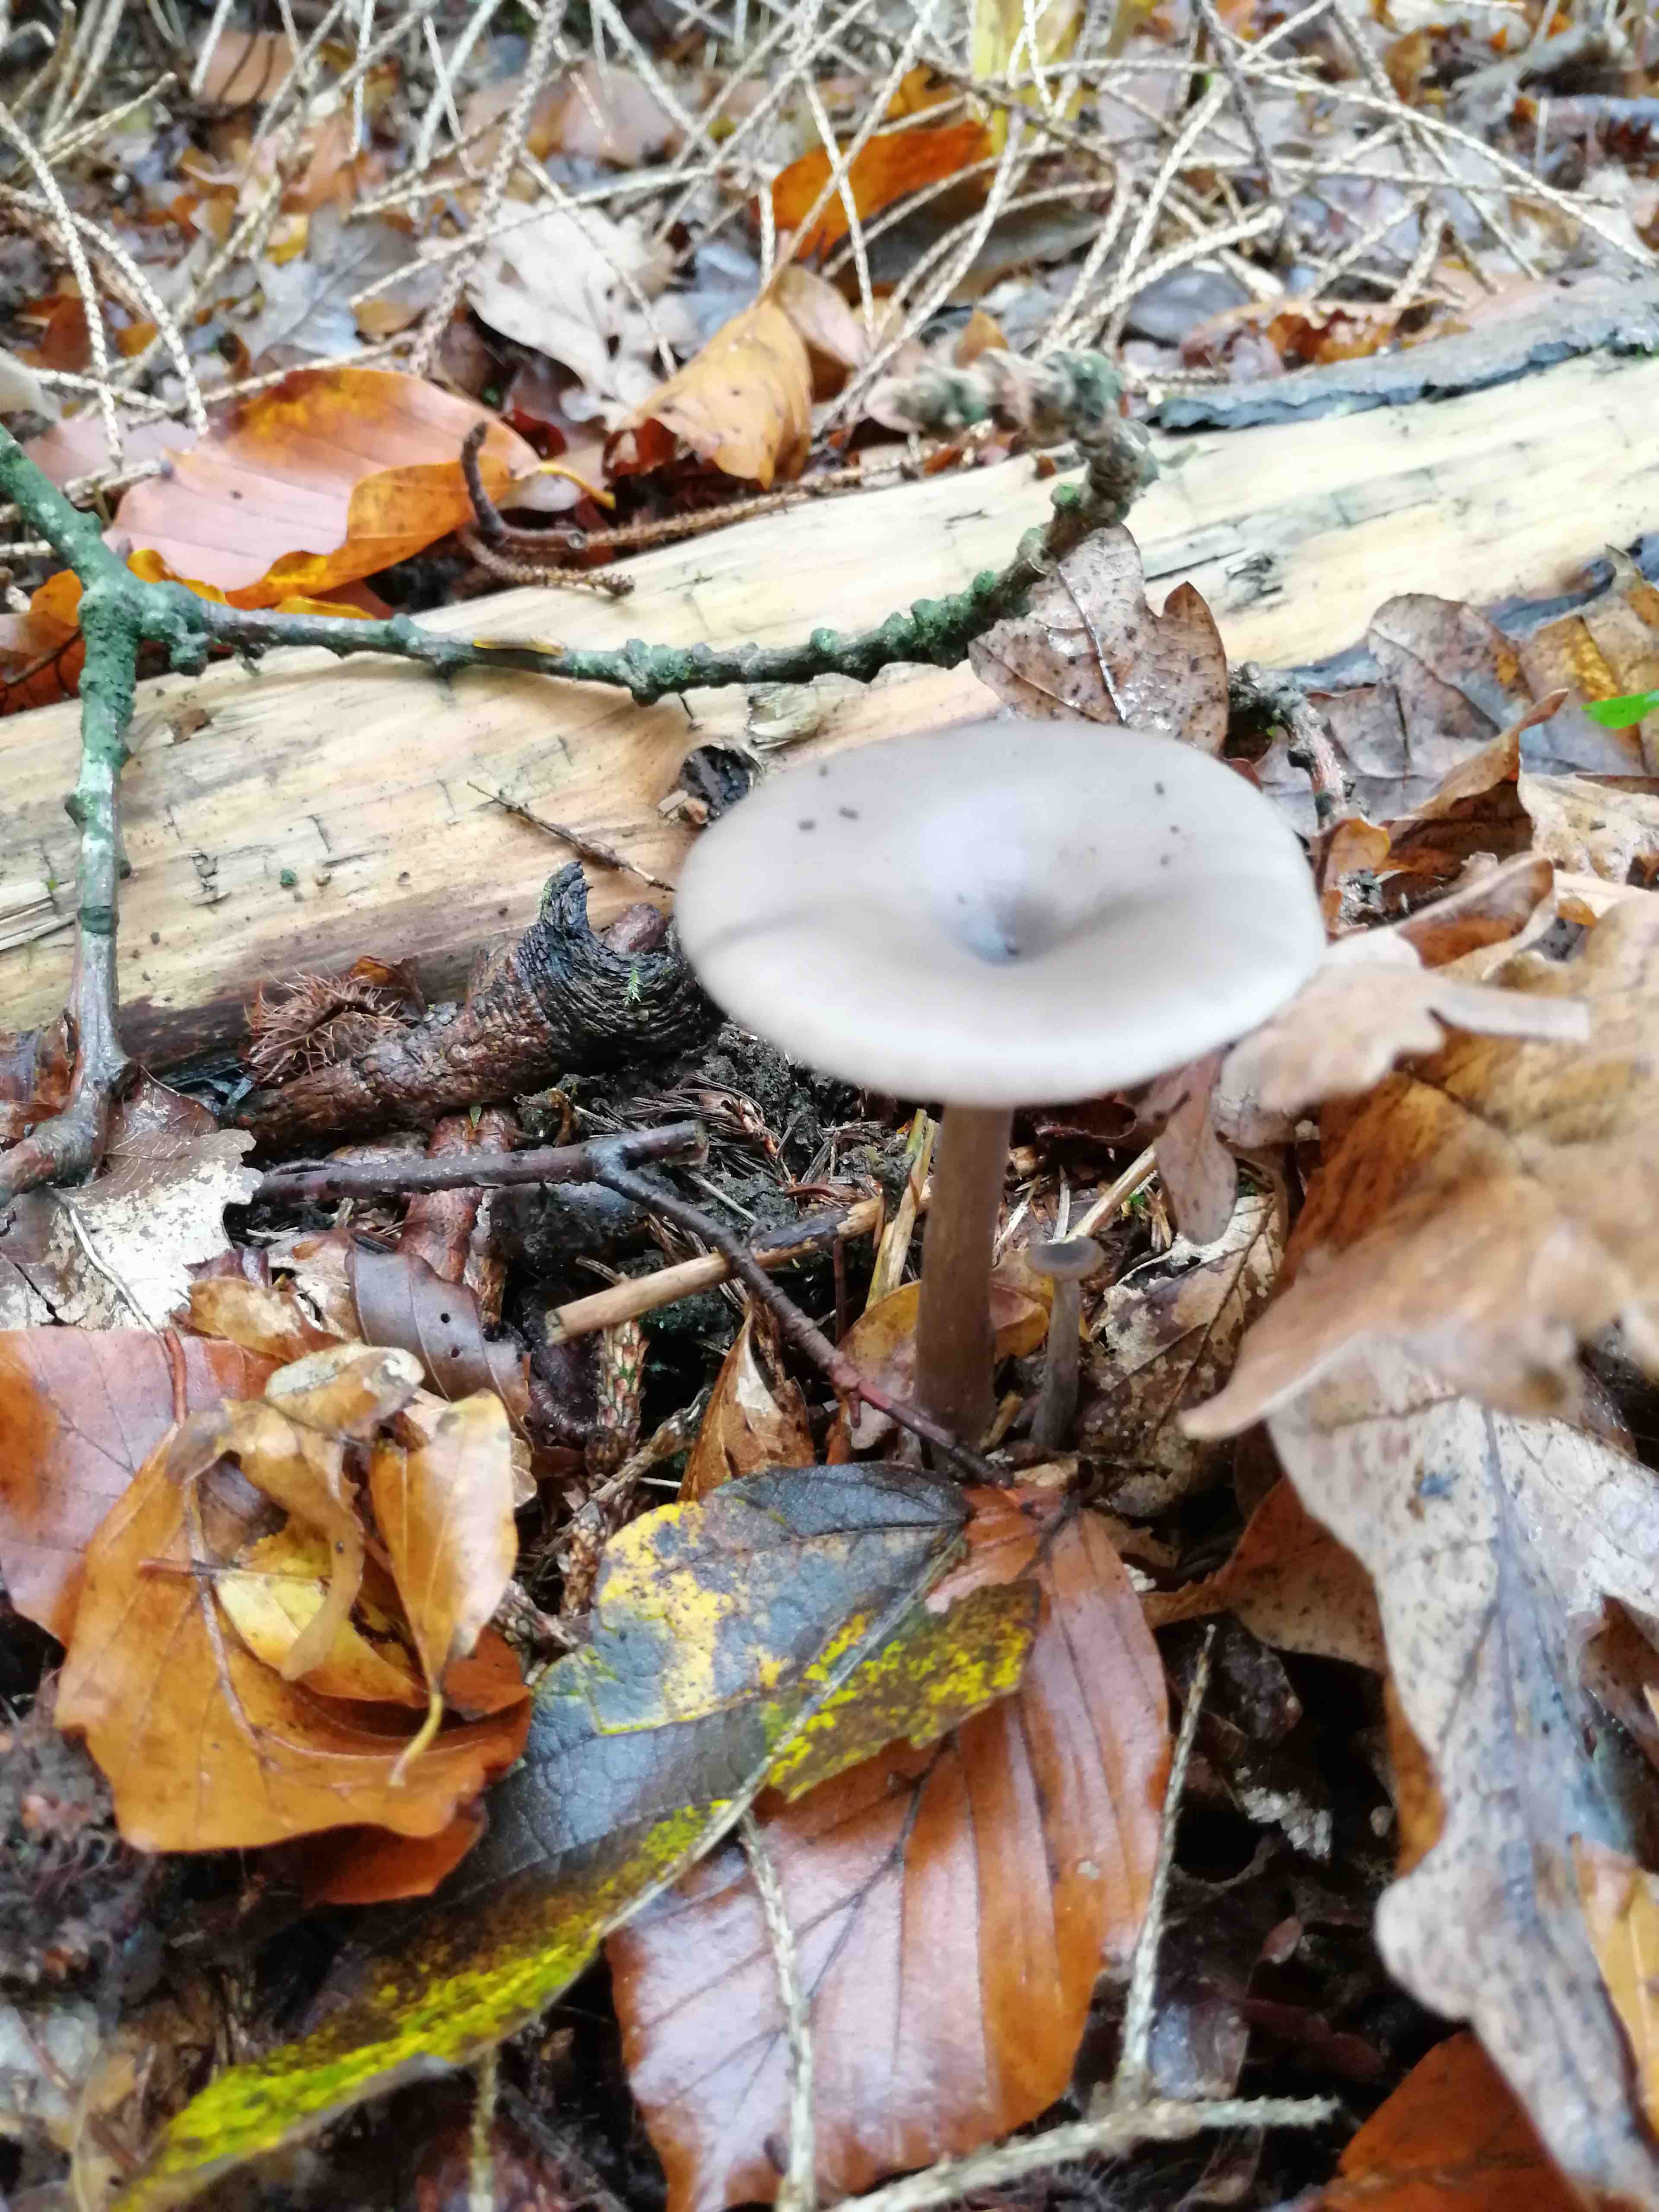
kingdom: Fungi
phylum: Basidiomycota
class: Agaricomycetes
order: Agaricales
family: Pseudoclitocybaceae
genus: Pseudoclitocybe
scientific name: Pseudoclitocybe cyathiformis
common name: almindelig bægertragthat
